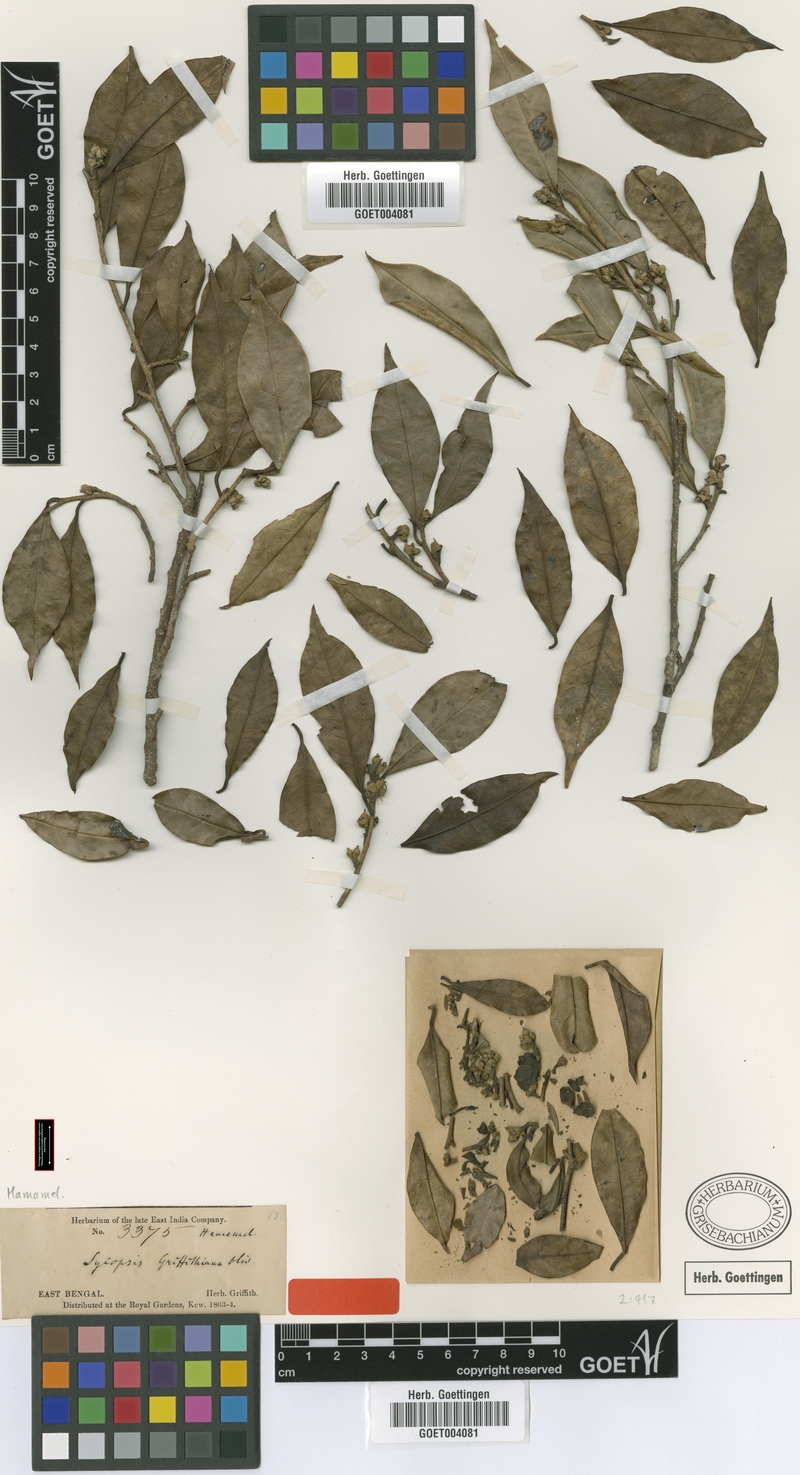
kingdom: Plantae
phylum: Tracheophyta
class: Magnoliopsida
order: Saxifragales
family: Hamamelidaceae
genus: Eustigma
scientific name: Eustigma lenticellatum
